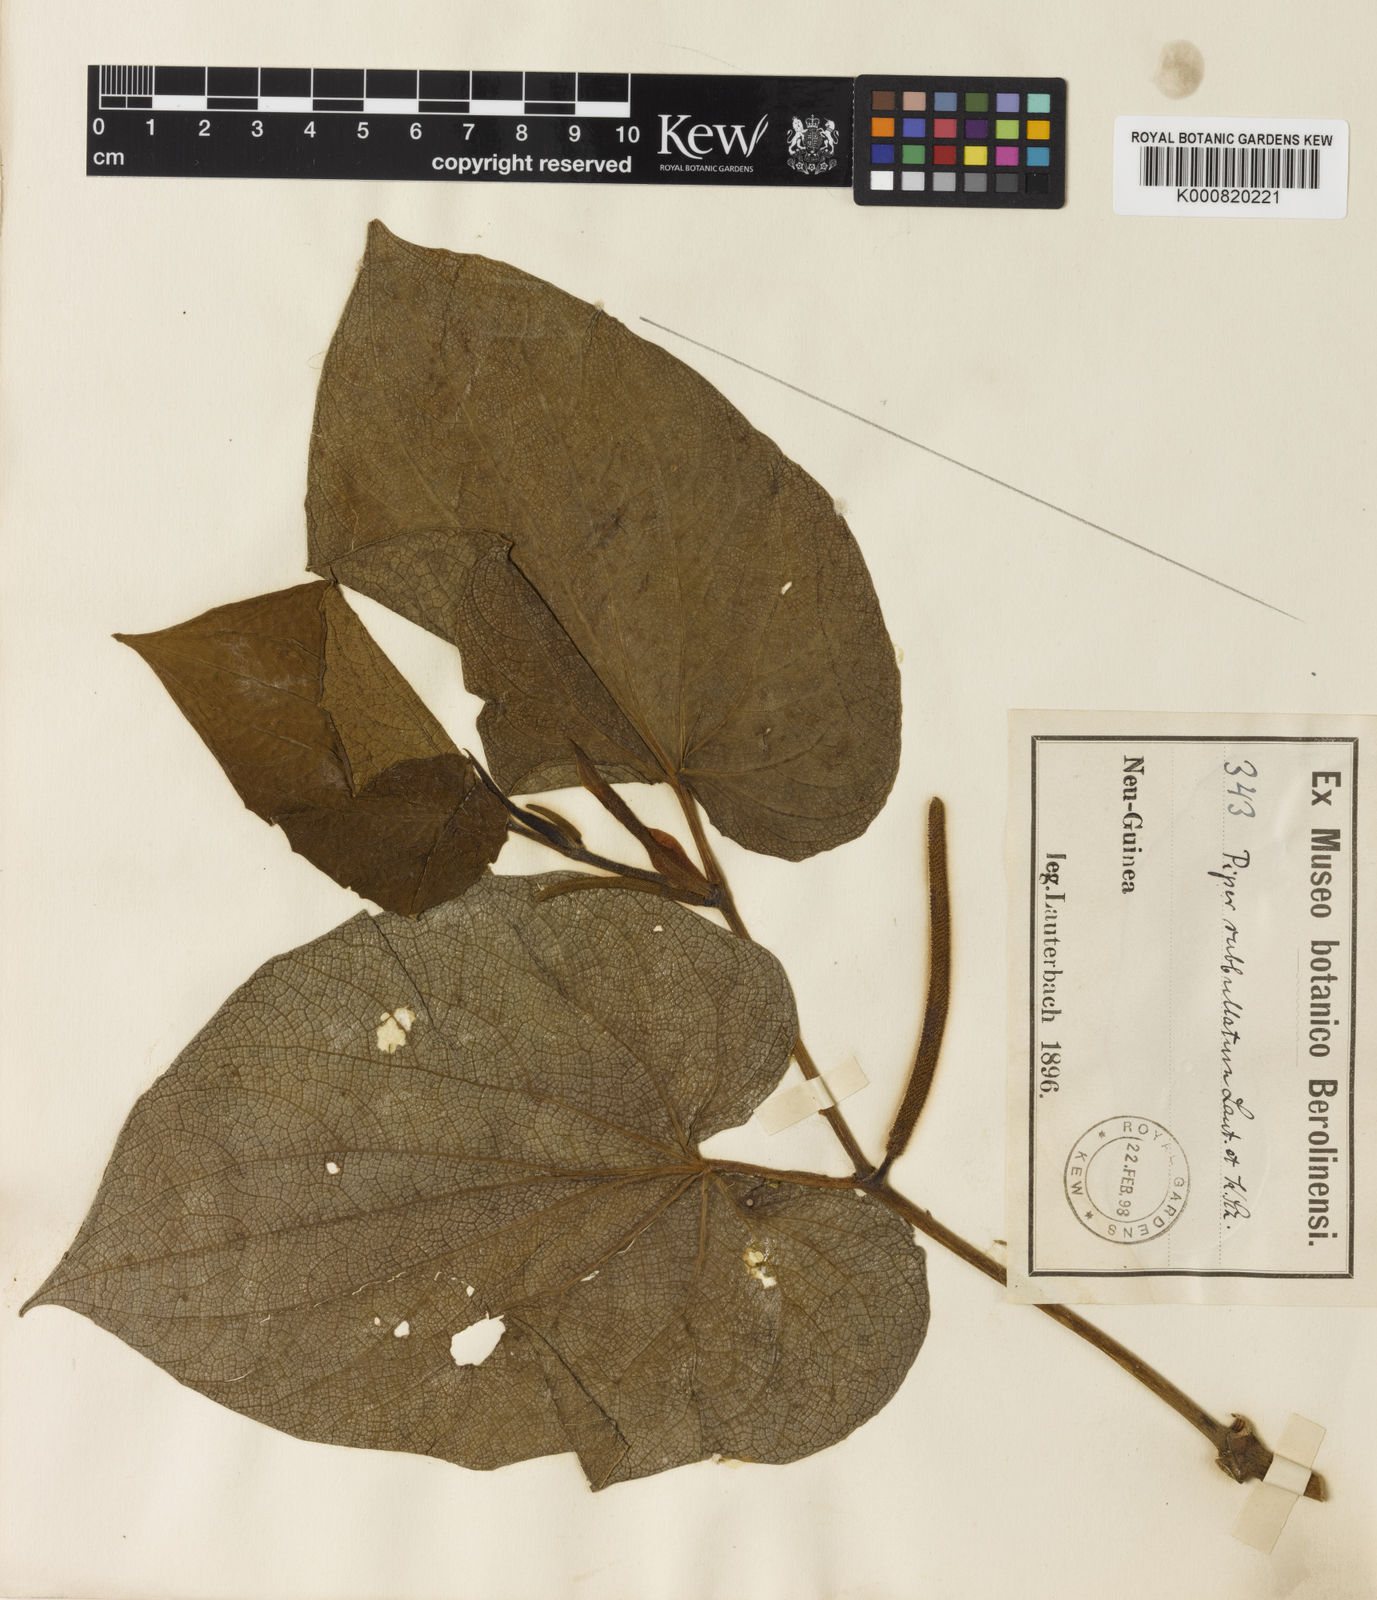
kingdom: Plantae
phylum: Tracheophyta
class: Magnoliopsida
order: Piperales
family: Piperaceae
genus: Piper
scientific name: Piper subbullatum
